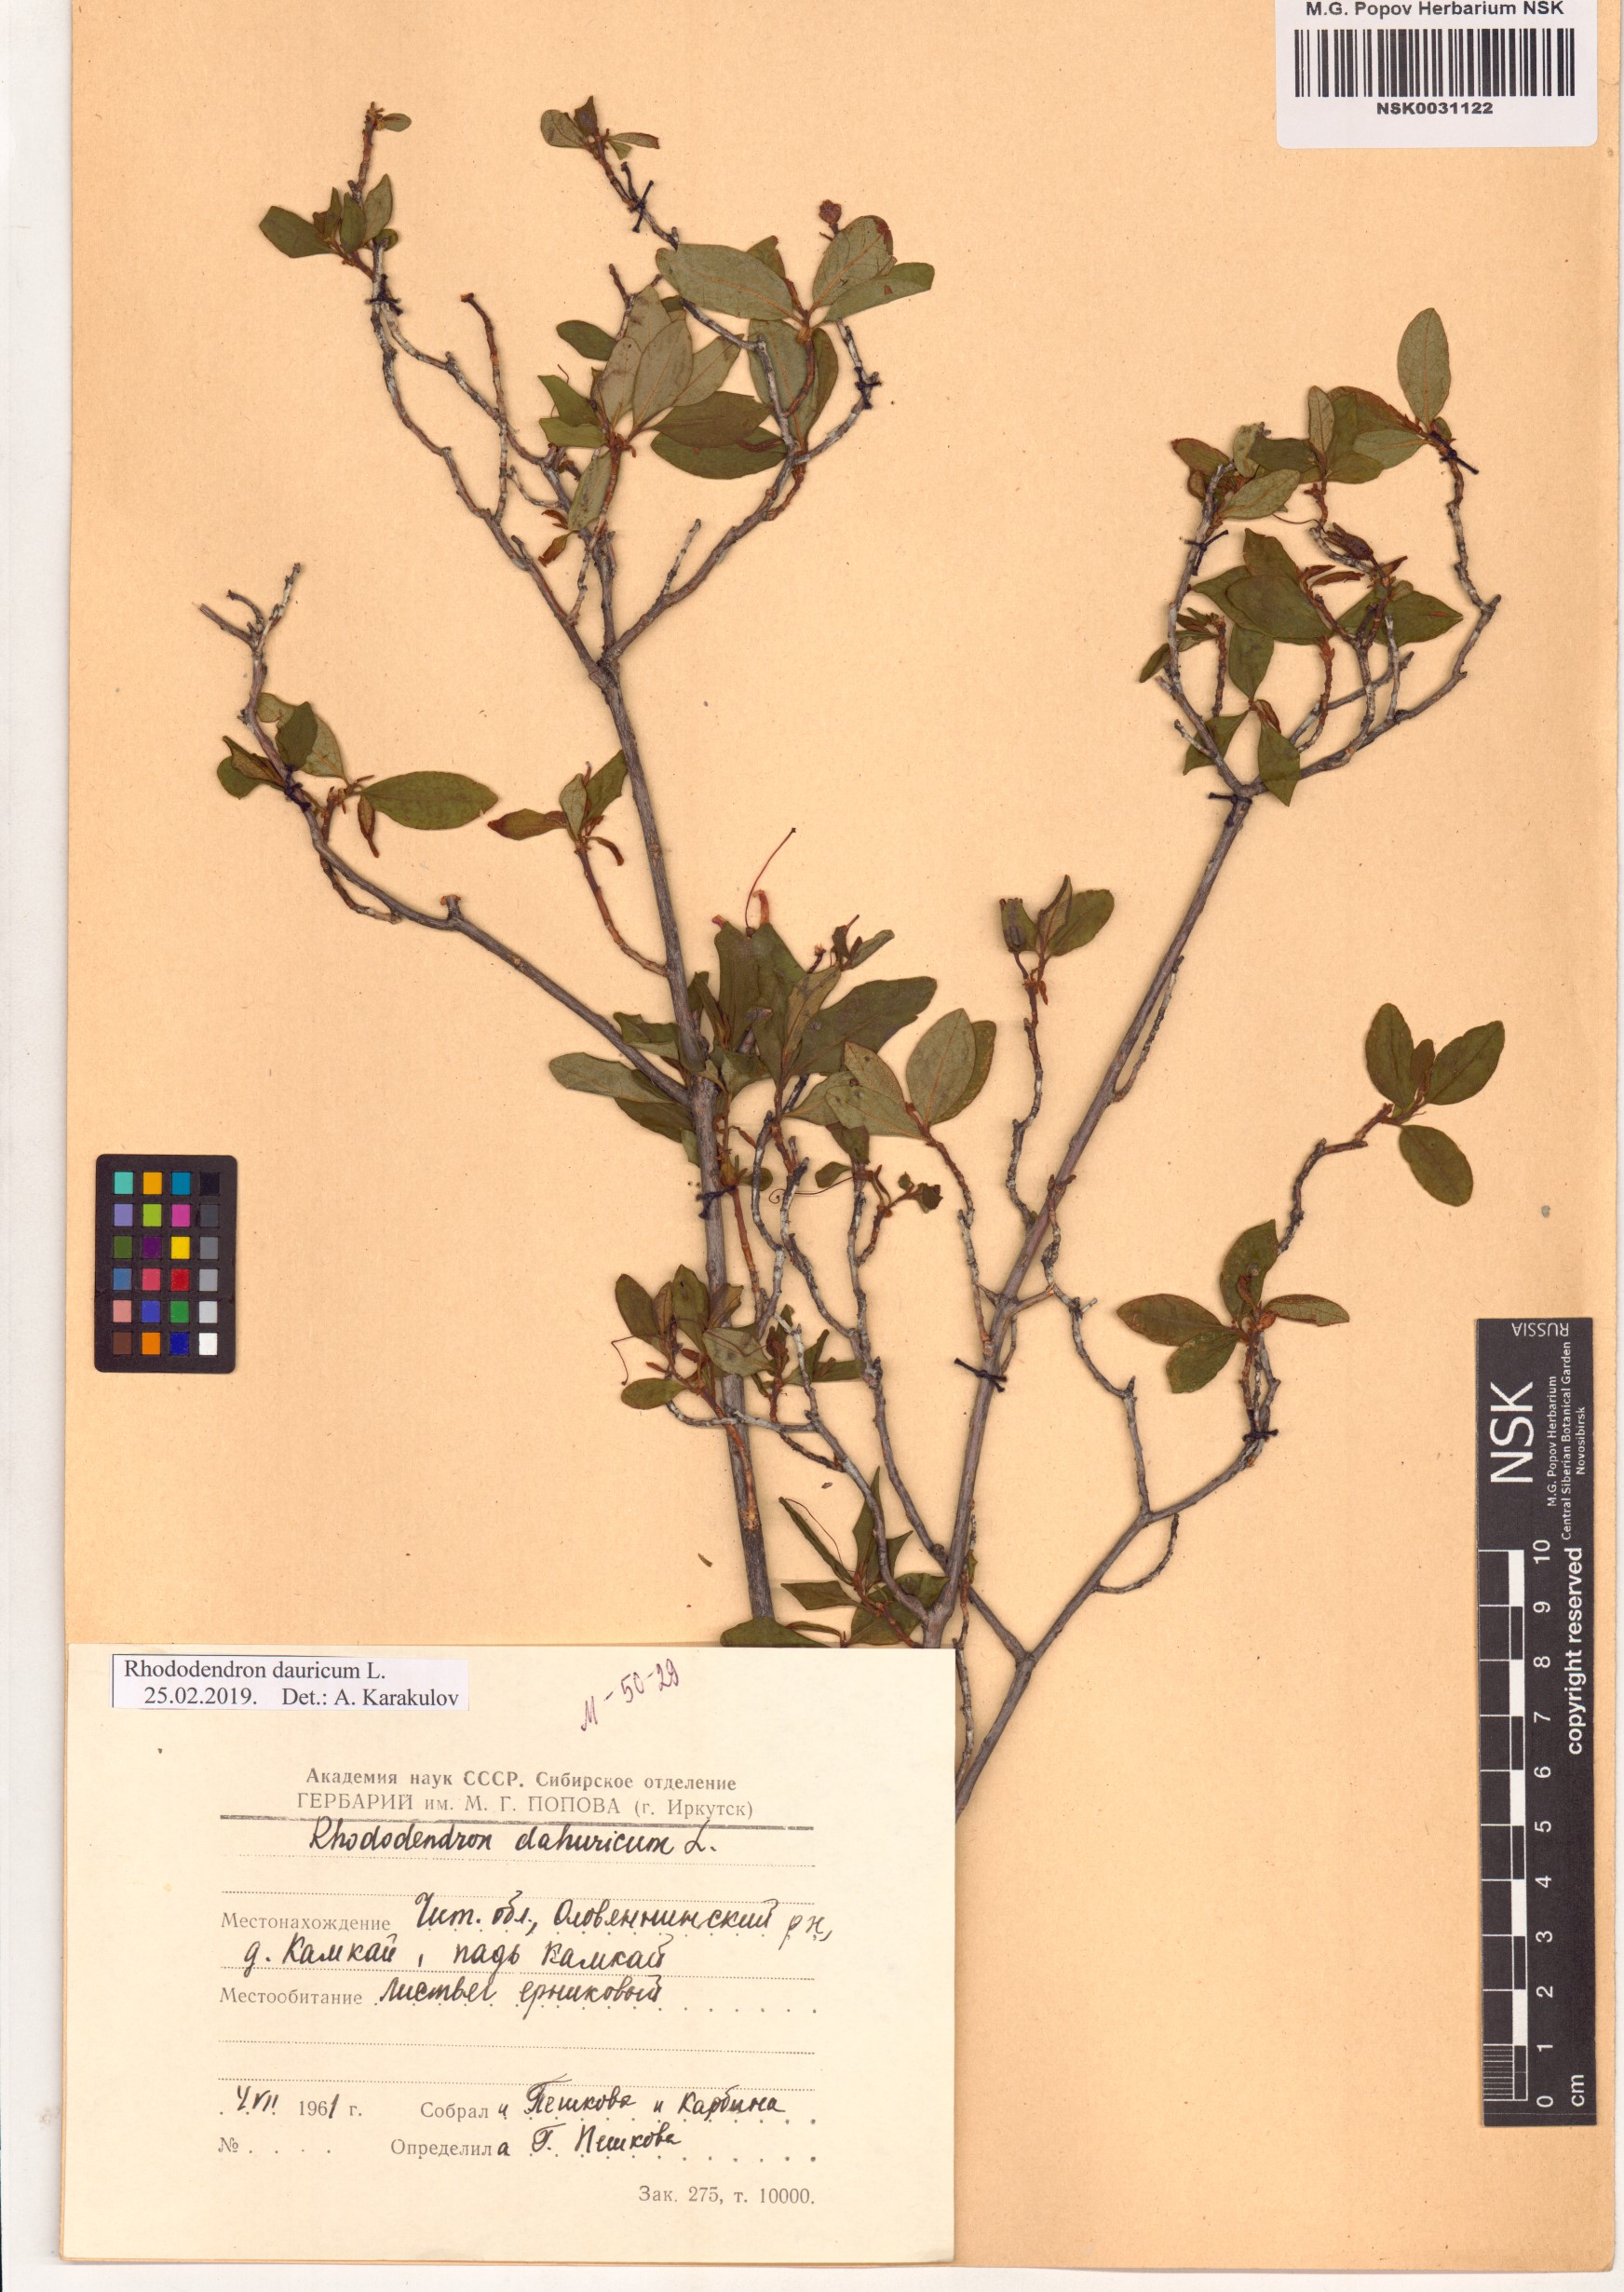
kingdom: Plantae
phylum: Tracheophyta
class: Magnoliopsida
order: Ericales
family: Ericaceae
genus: Rhododendron
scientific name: Rhododendron dauricum
